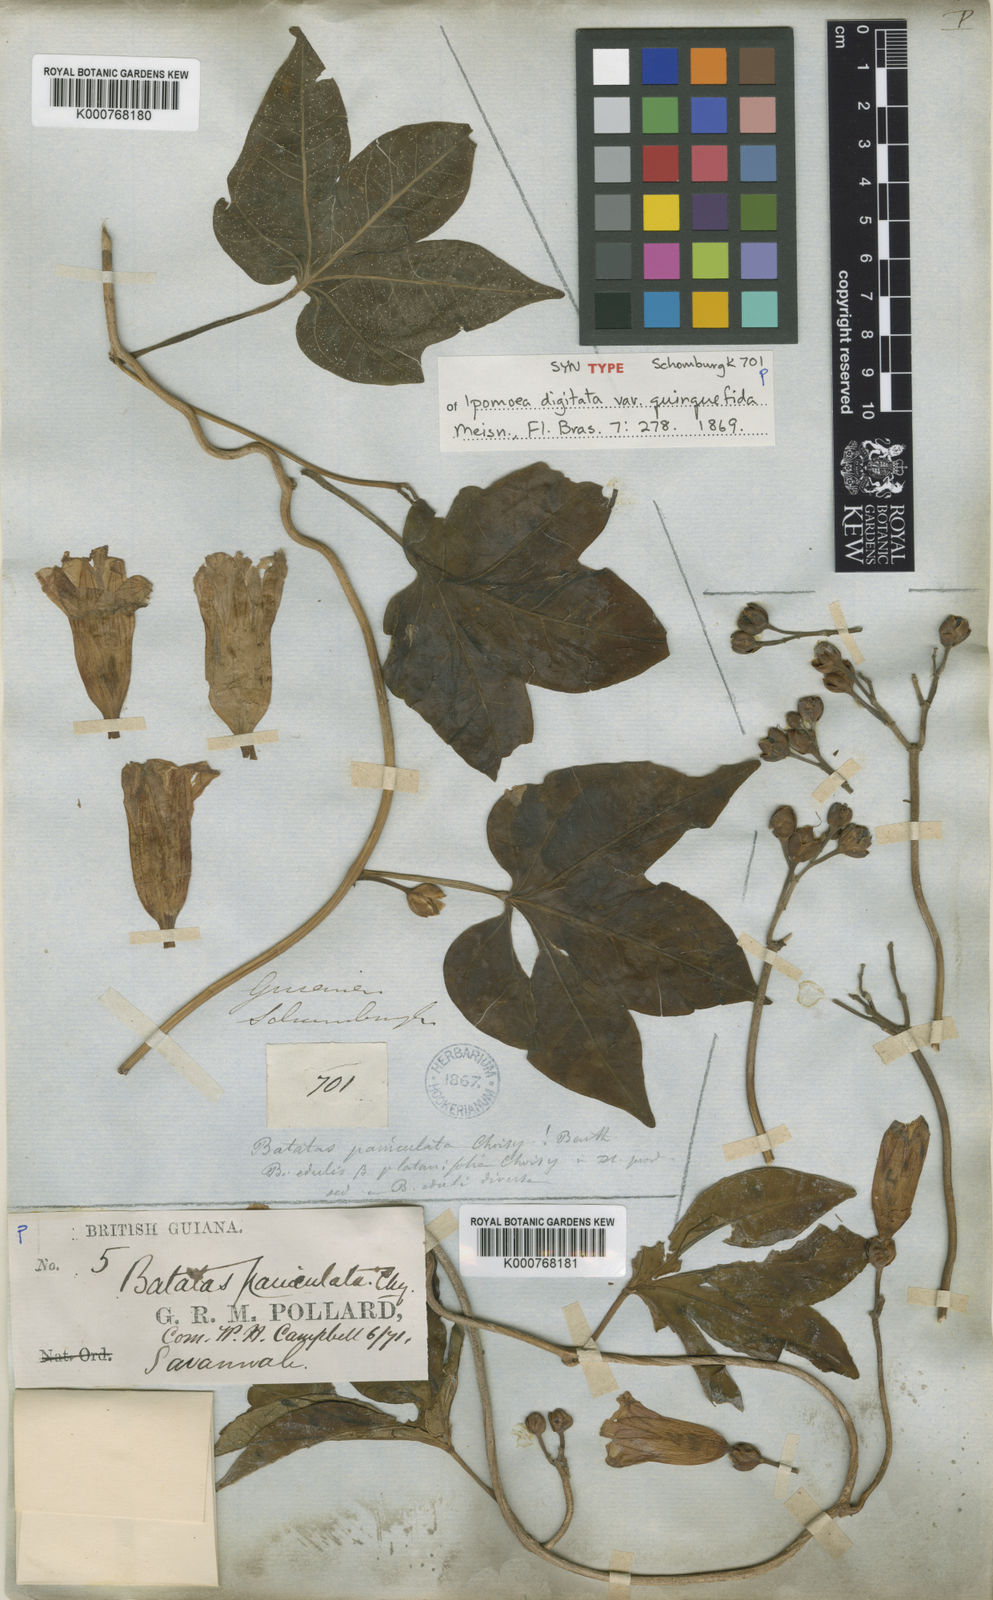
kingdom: Plantae
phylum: Tracheophyta
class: Magnoliopsida
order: Solanales
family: Convolvulaceae
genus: Ipomoea
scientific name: Ipomoea mauritiana
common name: Mauritanian convolvulus
